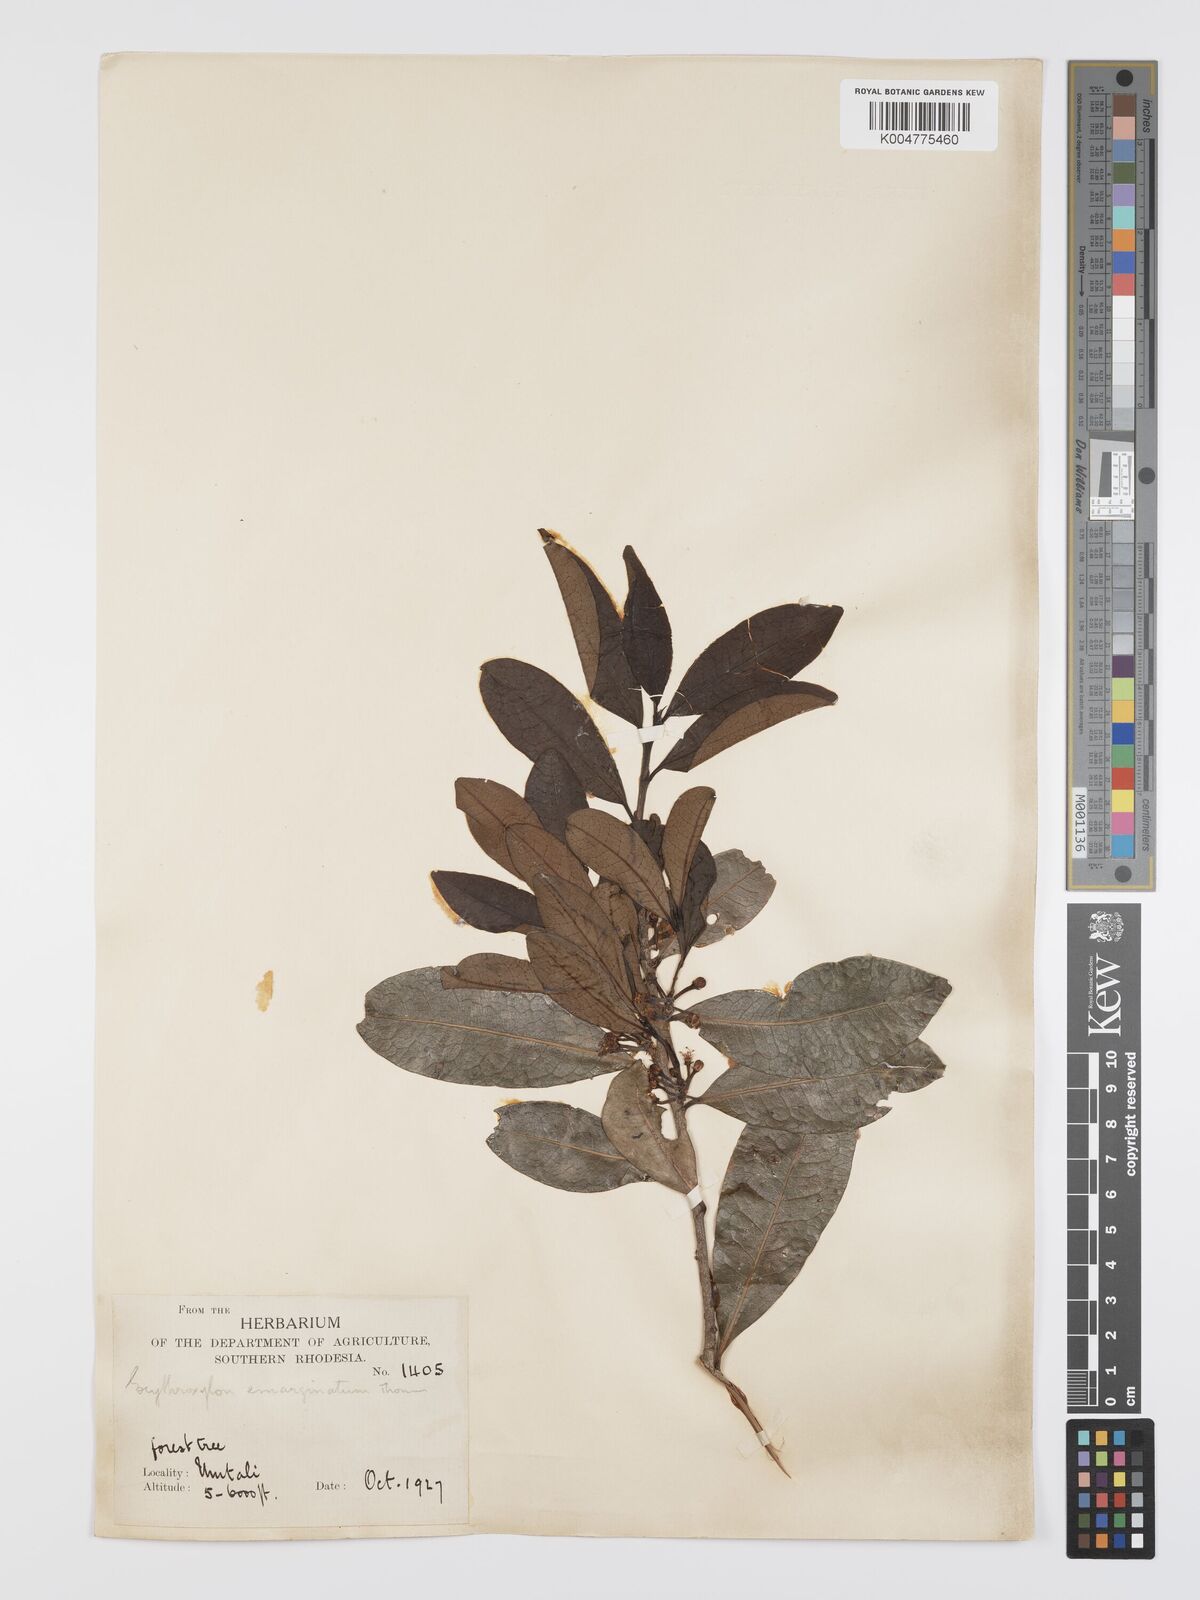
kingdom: Plantae
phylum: Tracheophyta
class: Magnoliopsida
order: Malpighiales
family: Erythroxylaceae
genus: Erythroxylum
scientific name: Erythroxylum emarginatum
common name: African coca-tree
